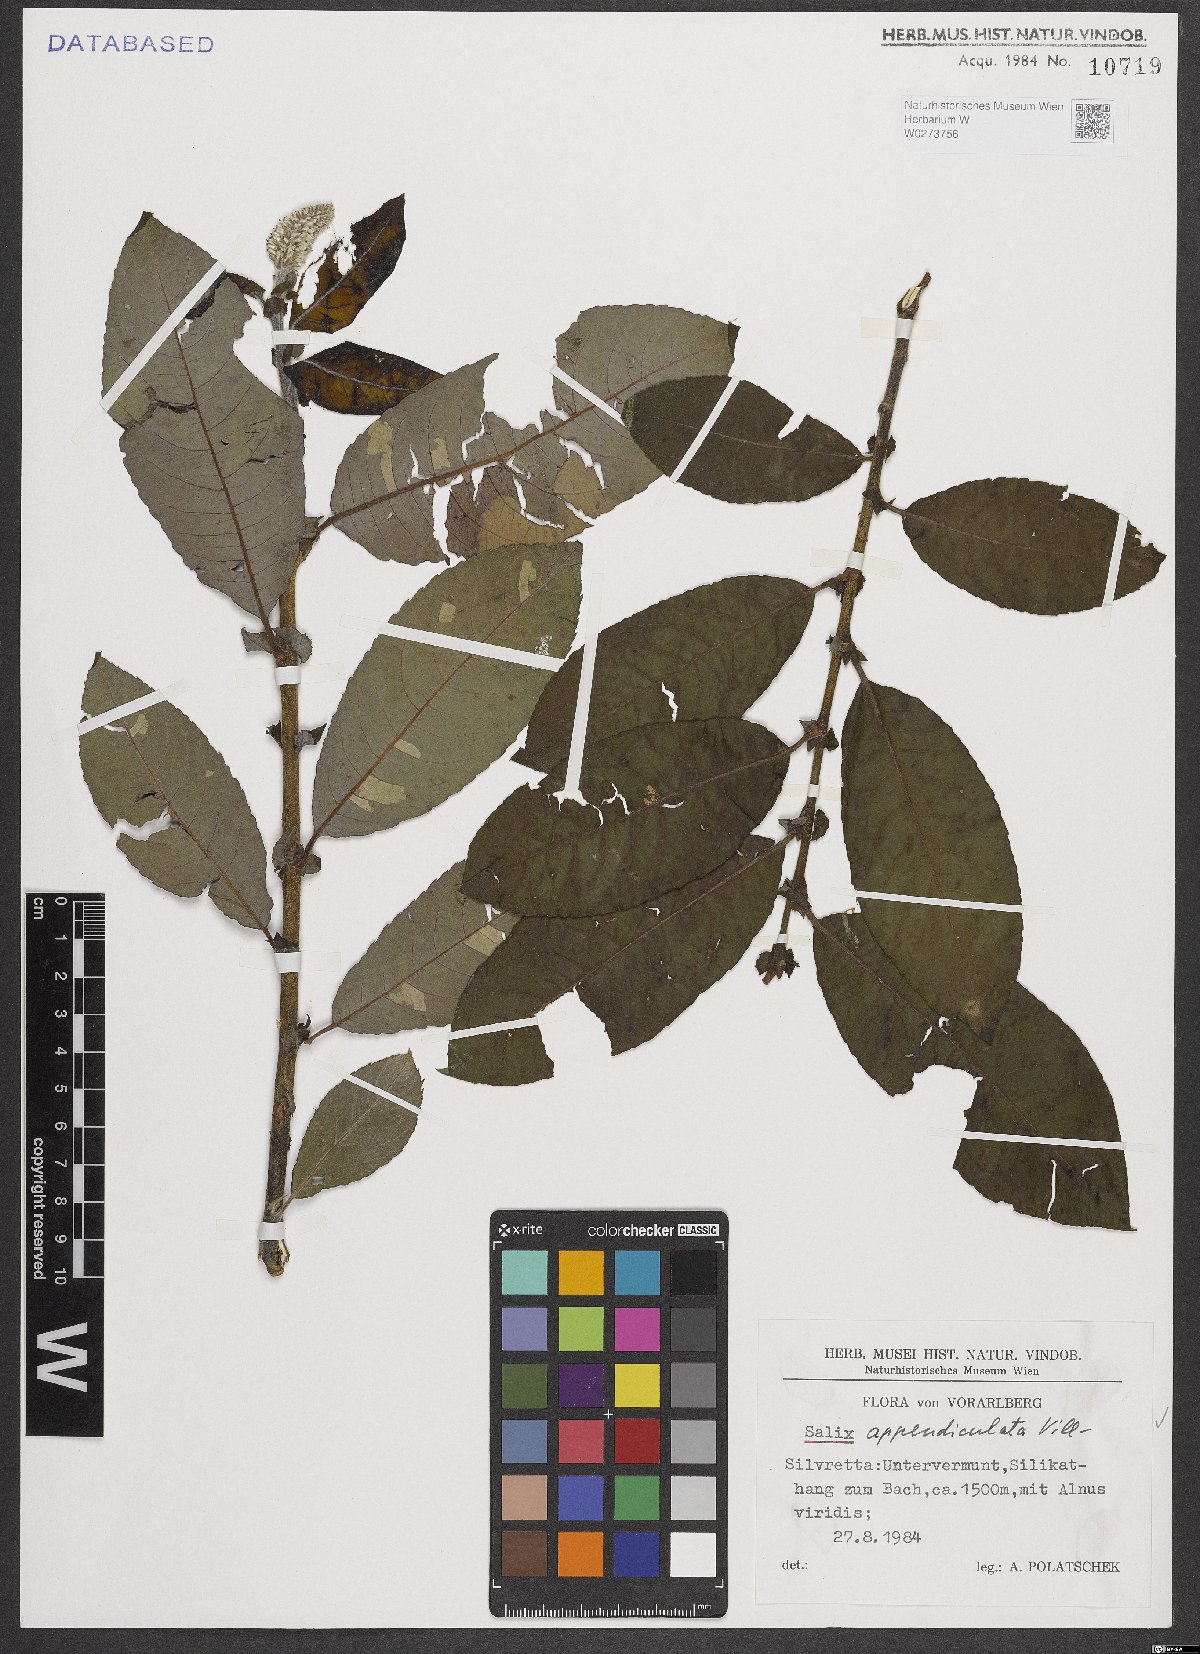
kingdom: Plantae
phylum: Tracheophyta
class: Magnoliopsida
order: Malpighiales
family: Salicaceae
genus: Salix
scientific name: Salix appendiculata
